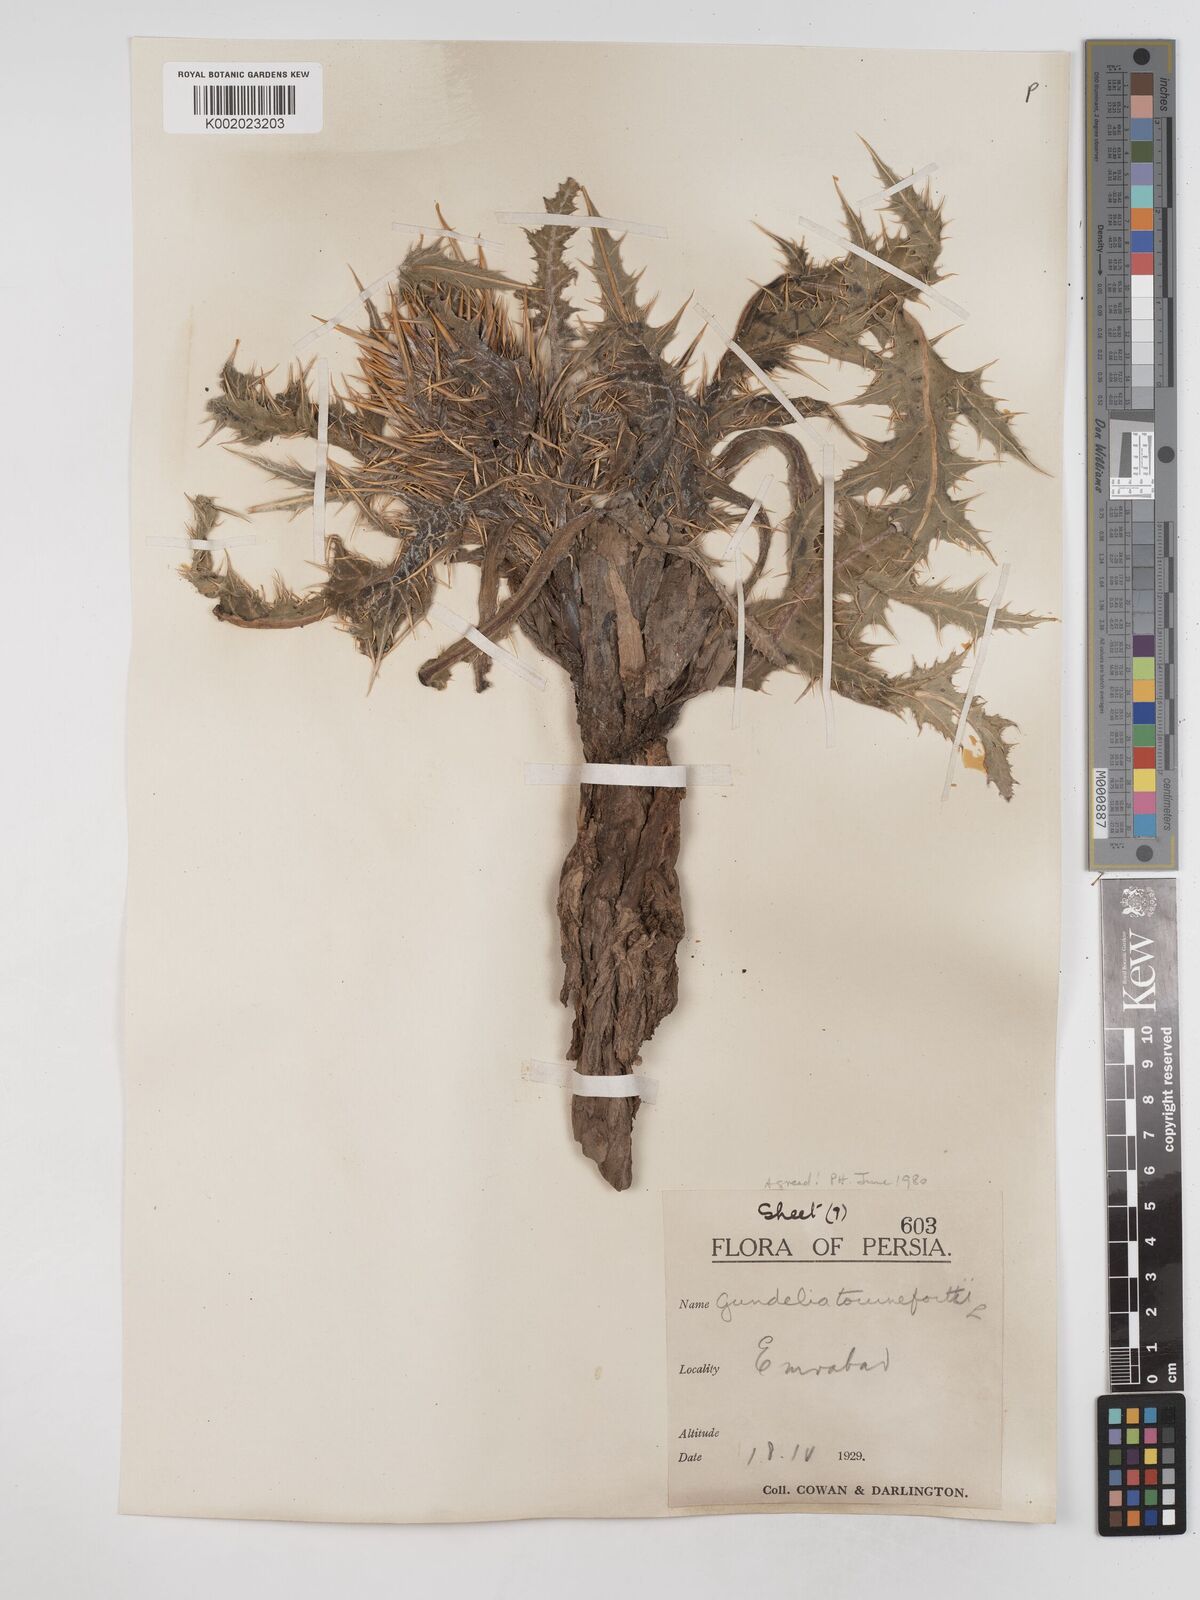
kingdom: Plantae
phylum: Tracheophyta
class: Magnoliopsida
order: Asterales
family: Asteraceae
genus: Gundelia
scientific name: Gundelia tournefortii
